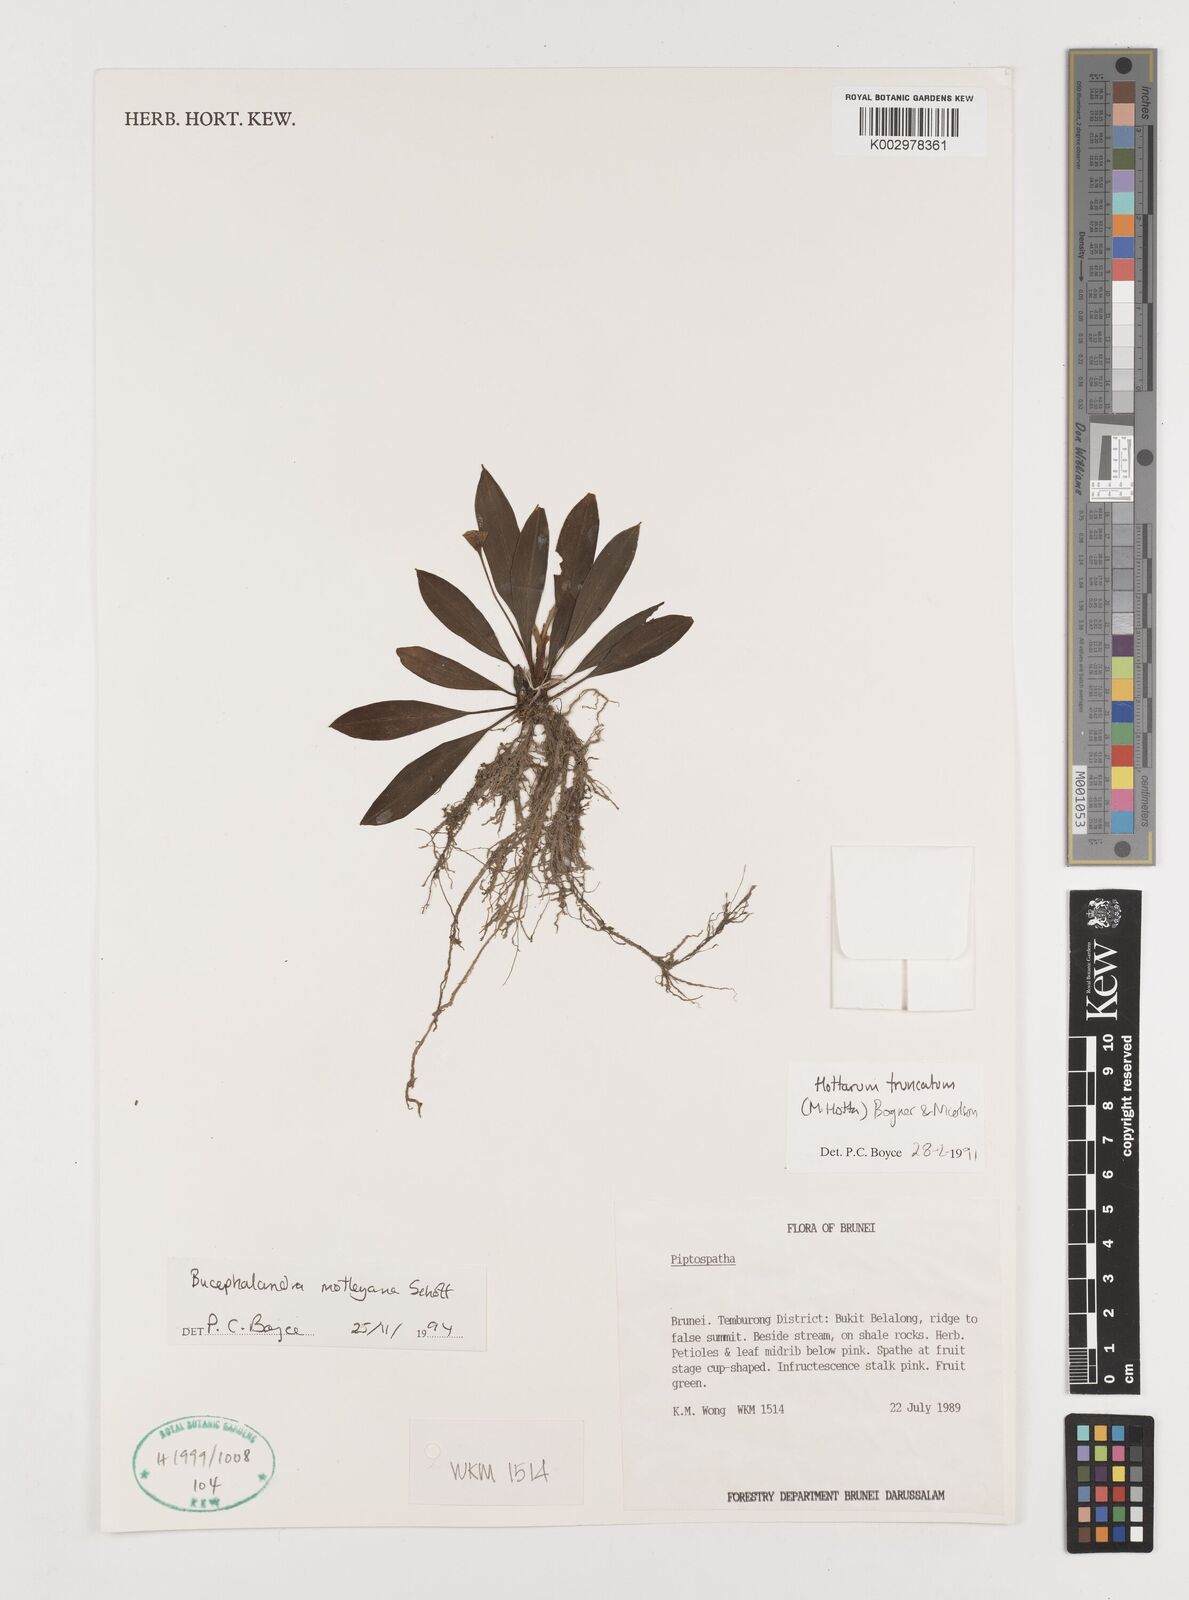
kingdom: Plantae
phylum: Tracheophyta
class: Liliopsida
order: Alismatales
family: Araceae
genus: Bucephalandra
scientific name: Bucephalandra motleyana
